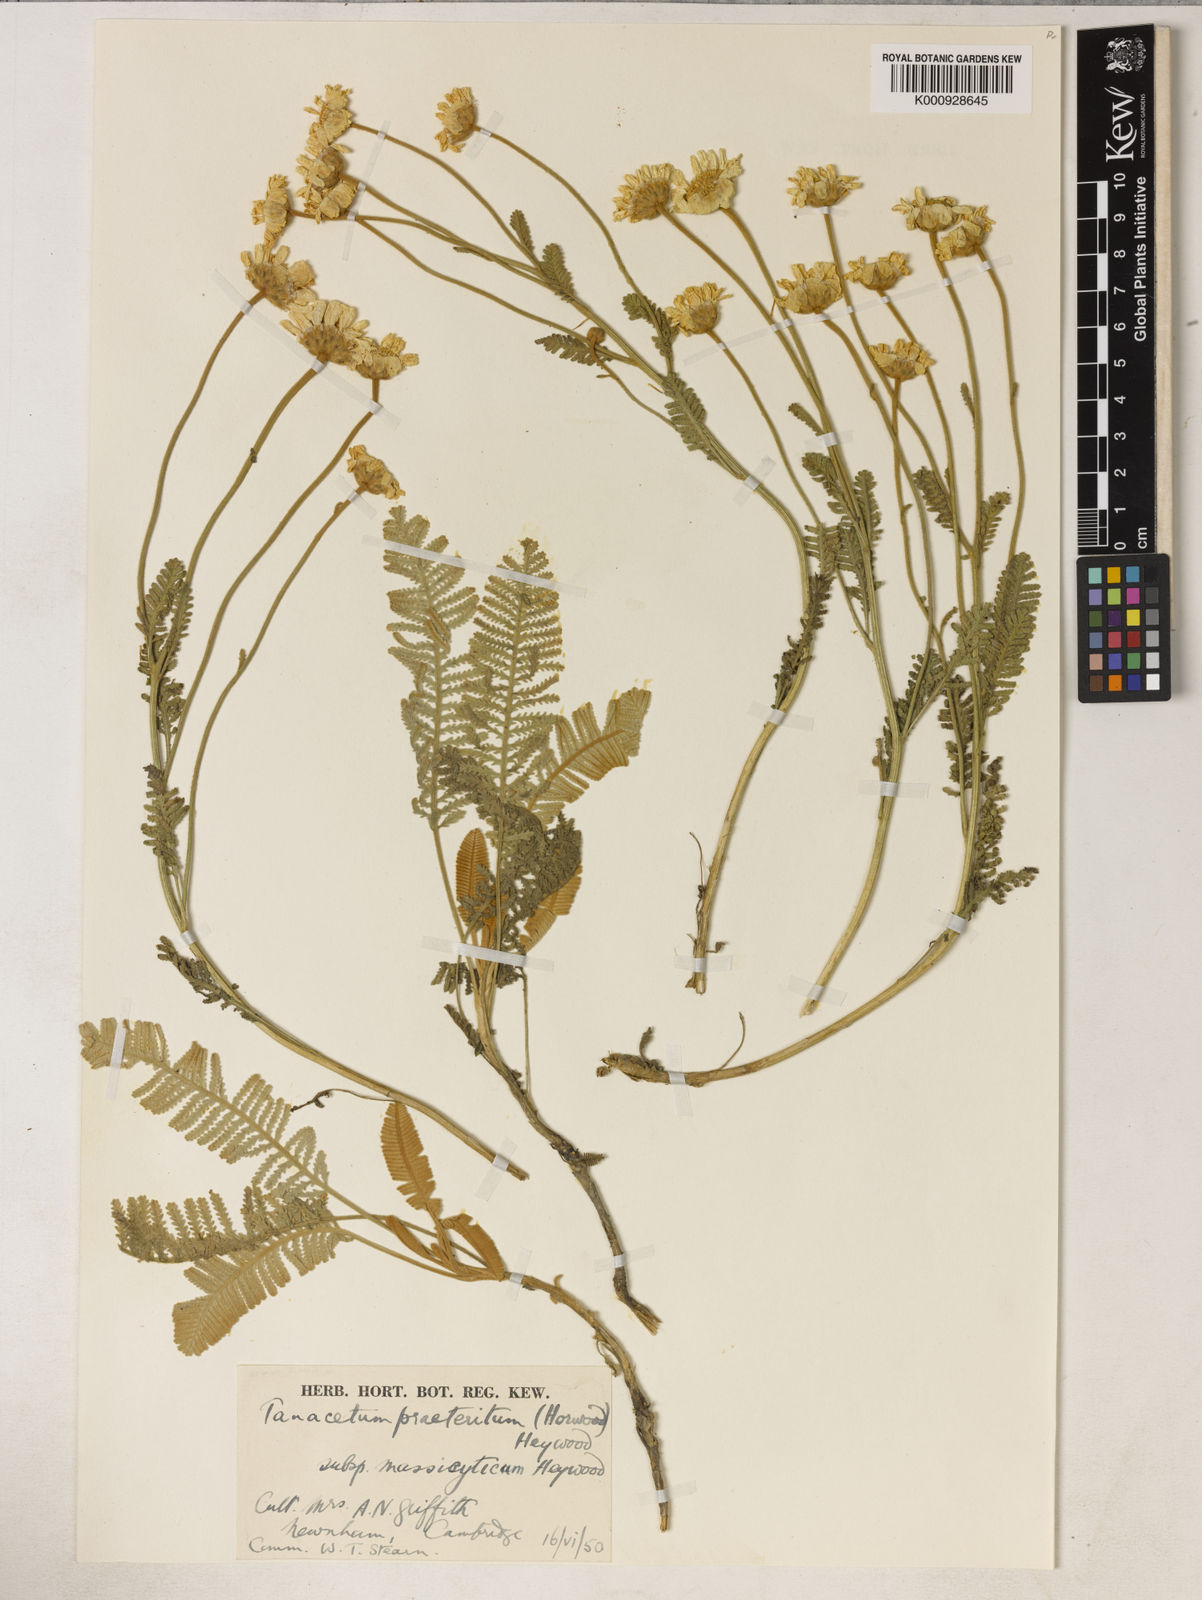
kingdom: Plantae
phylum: Tracheophyta
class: Magnoliopsida
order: Asterales
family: Asteraceae
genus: Tanacetum
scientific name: Tanacetum praeteritum
